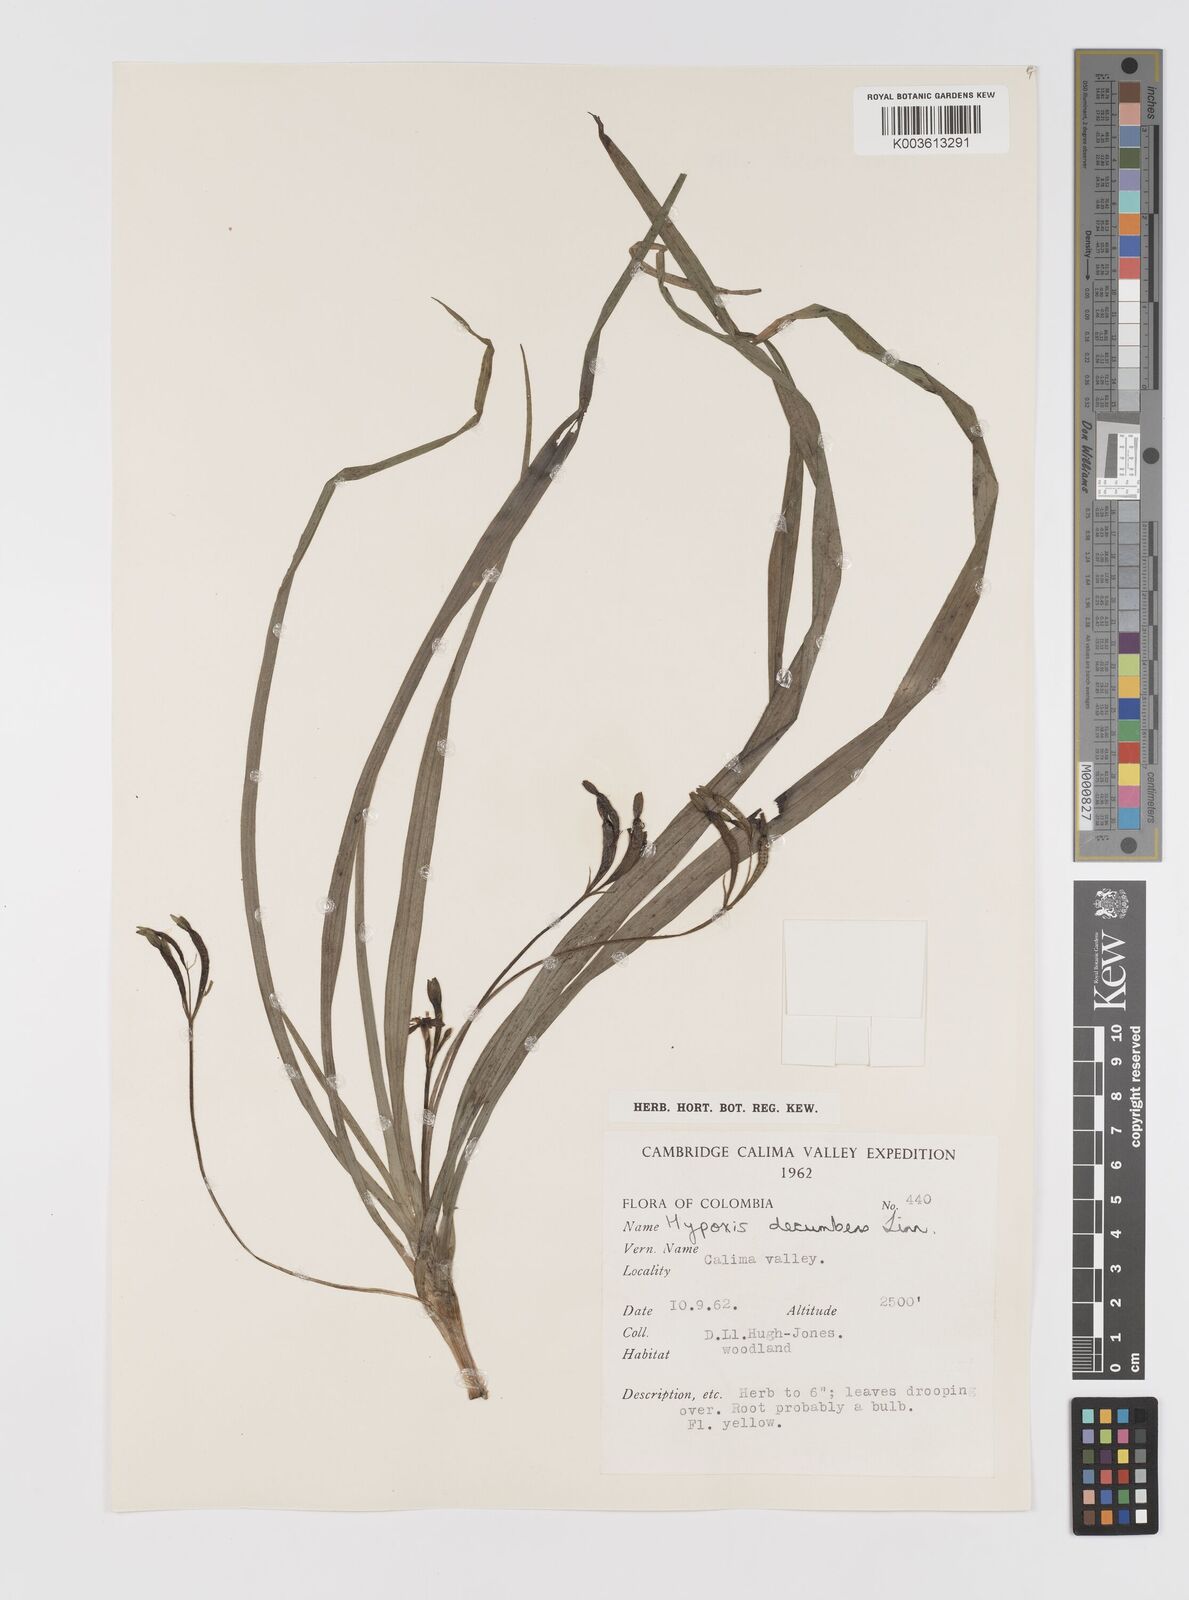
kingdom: Plantae
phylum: Tracheophyta
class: Liliopsida
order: Asparagales
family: Hypoxidaceae
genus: Hypoxis
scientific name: Hypoxis decumbens
